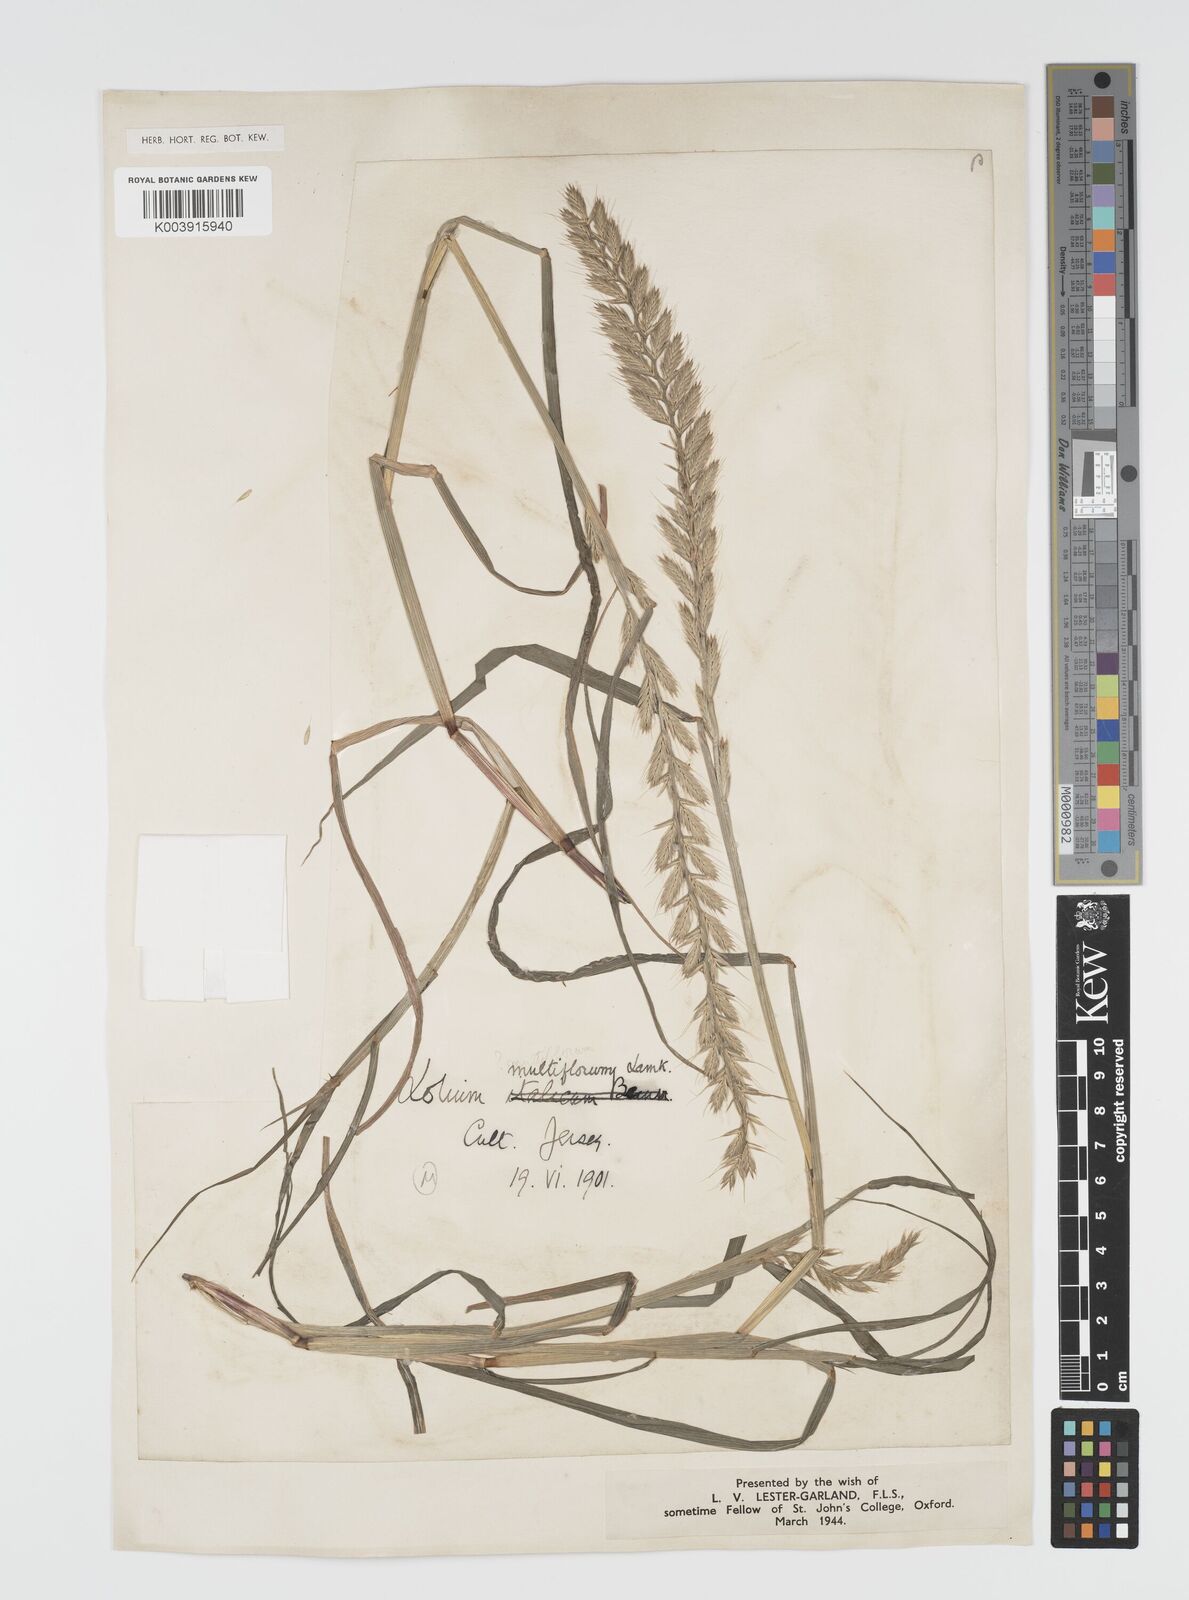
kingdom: Plantae
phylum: Tracheophyta
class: Liliopsida
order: Poales
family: Poaceae
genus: Lolium
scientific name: Lolium multiflorum
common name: Annual ryegrass
